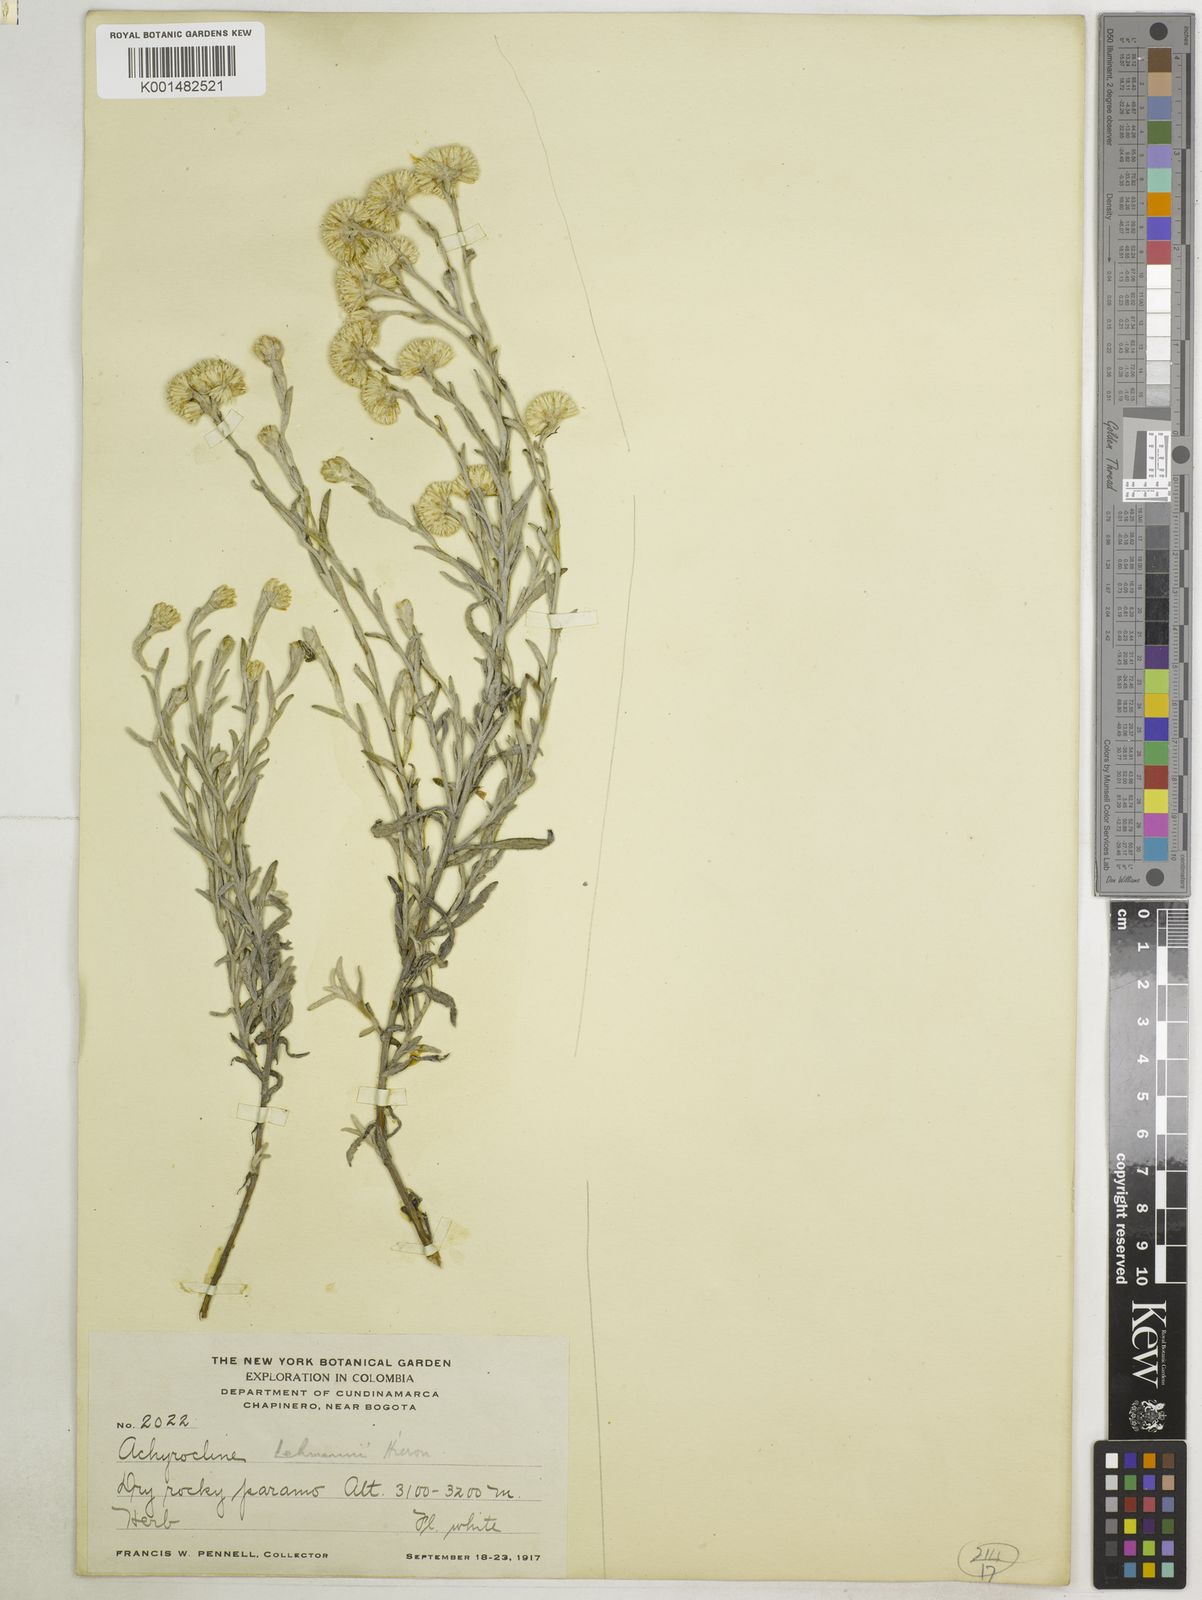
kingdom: Plantae
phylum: Tracheophyta
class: Magnoliopsida
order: Asterales
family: Asteraceae
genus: Achyrocline
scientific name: Achyrocline lehmannii
